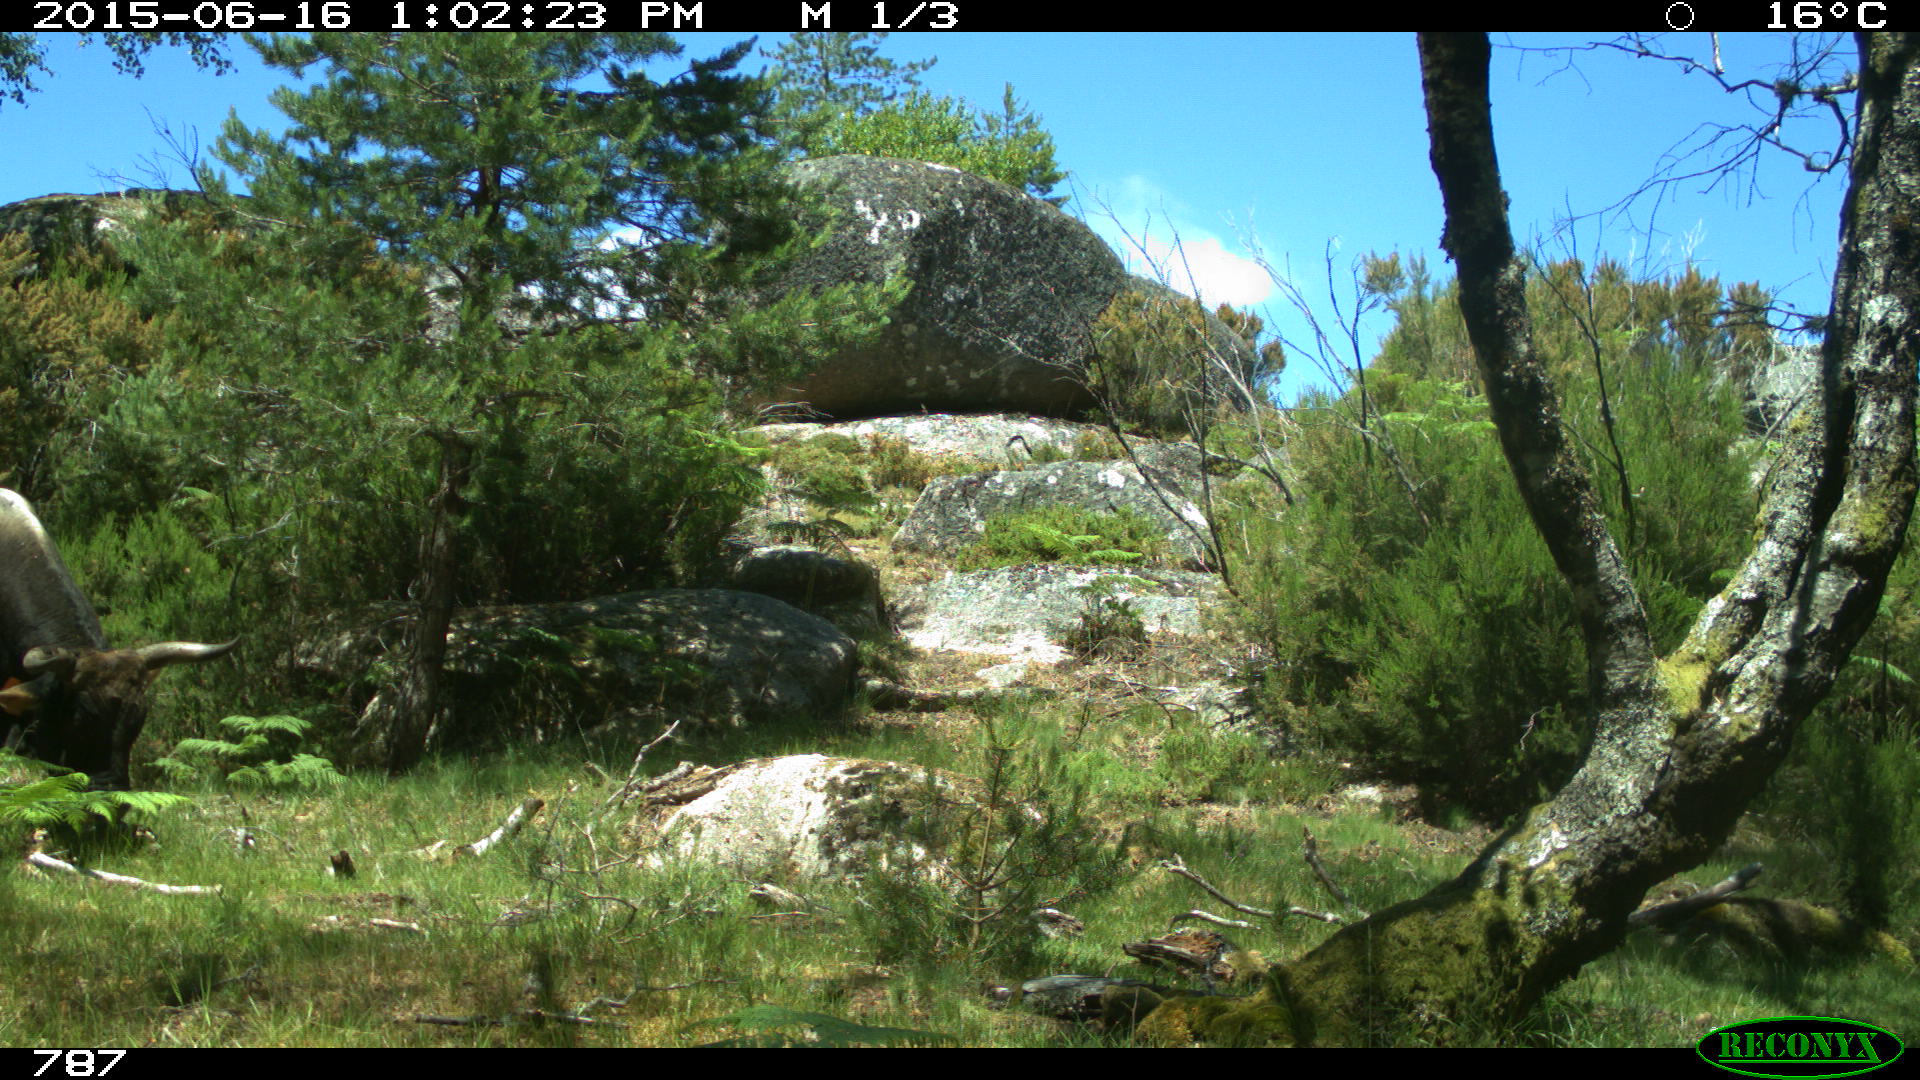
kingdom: Animalia
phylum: Chordata
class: Mammalia
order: Artiodactyla
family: Bovidae
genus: Bos
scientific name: Bos taurus
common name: Domesticated cattle
